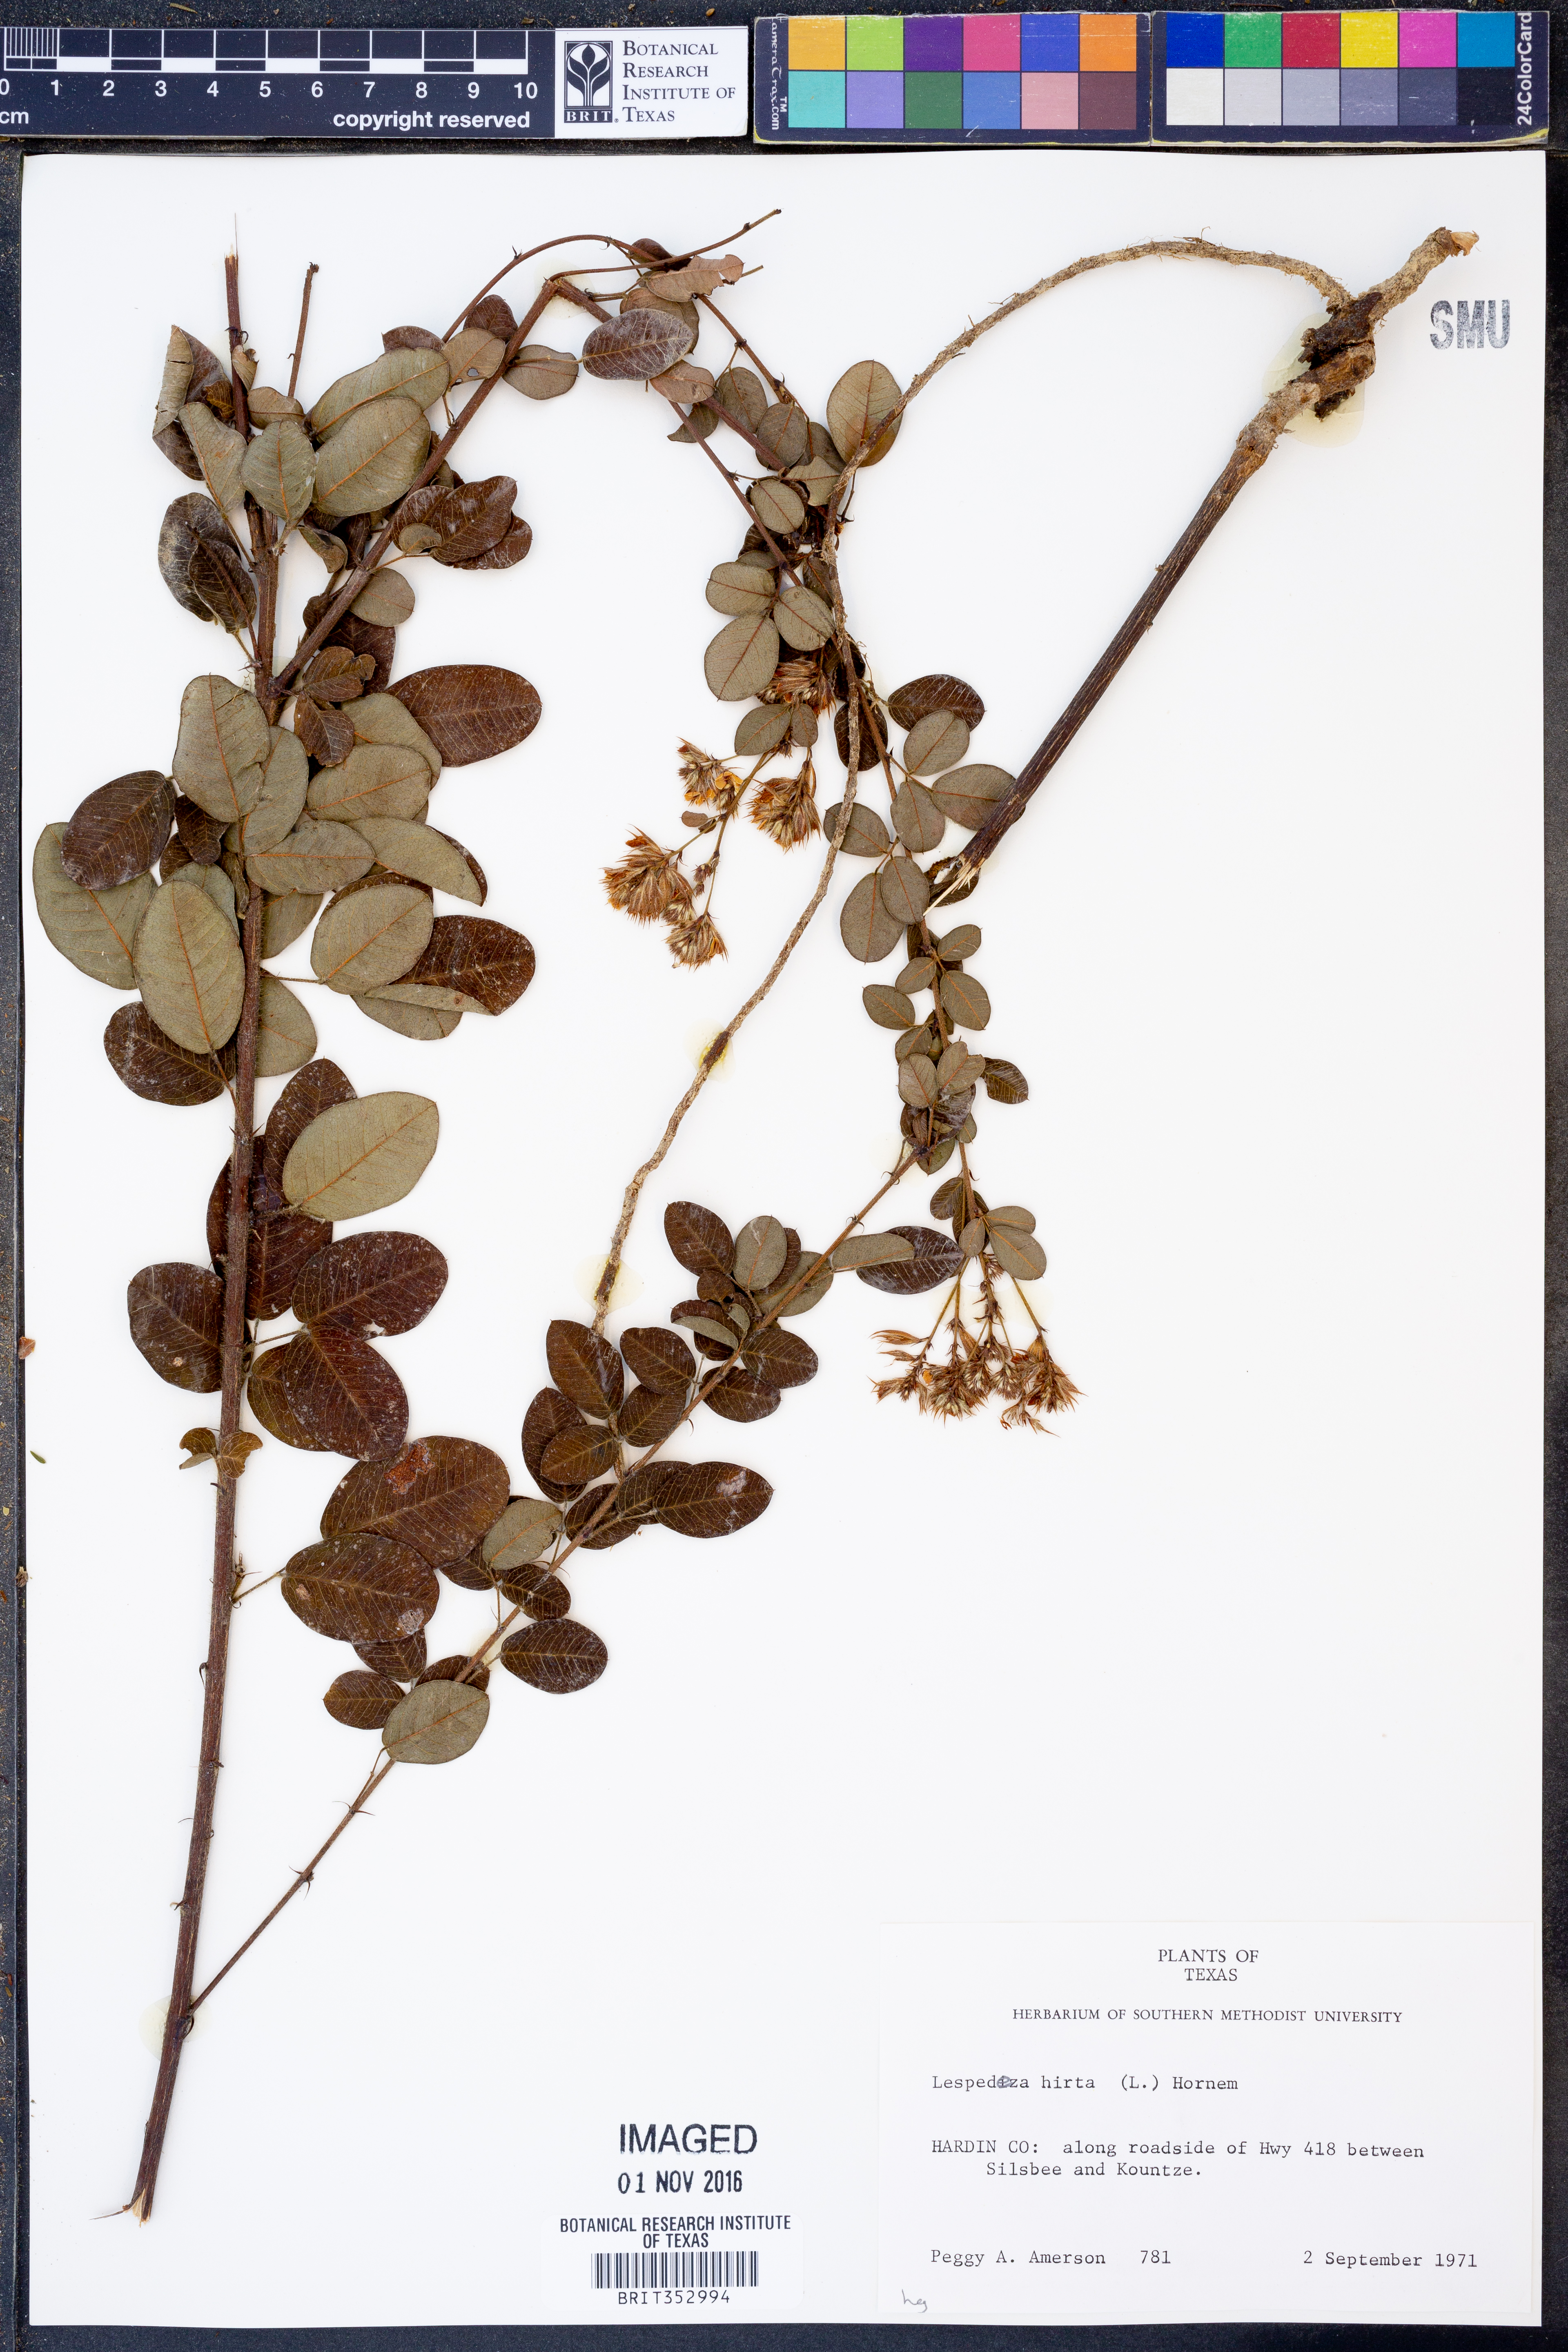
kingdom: Plantae
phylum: Tracheophyta
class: Magnoliopsida
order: Fabales
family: Fabaceae
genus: Lespedeza
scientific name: Lespedeza hirta
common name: Hairy lespedeza
